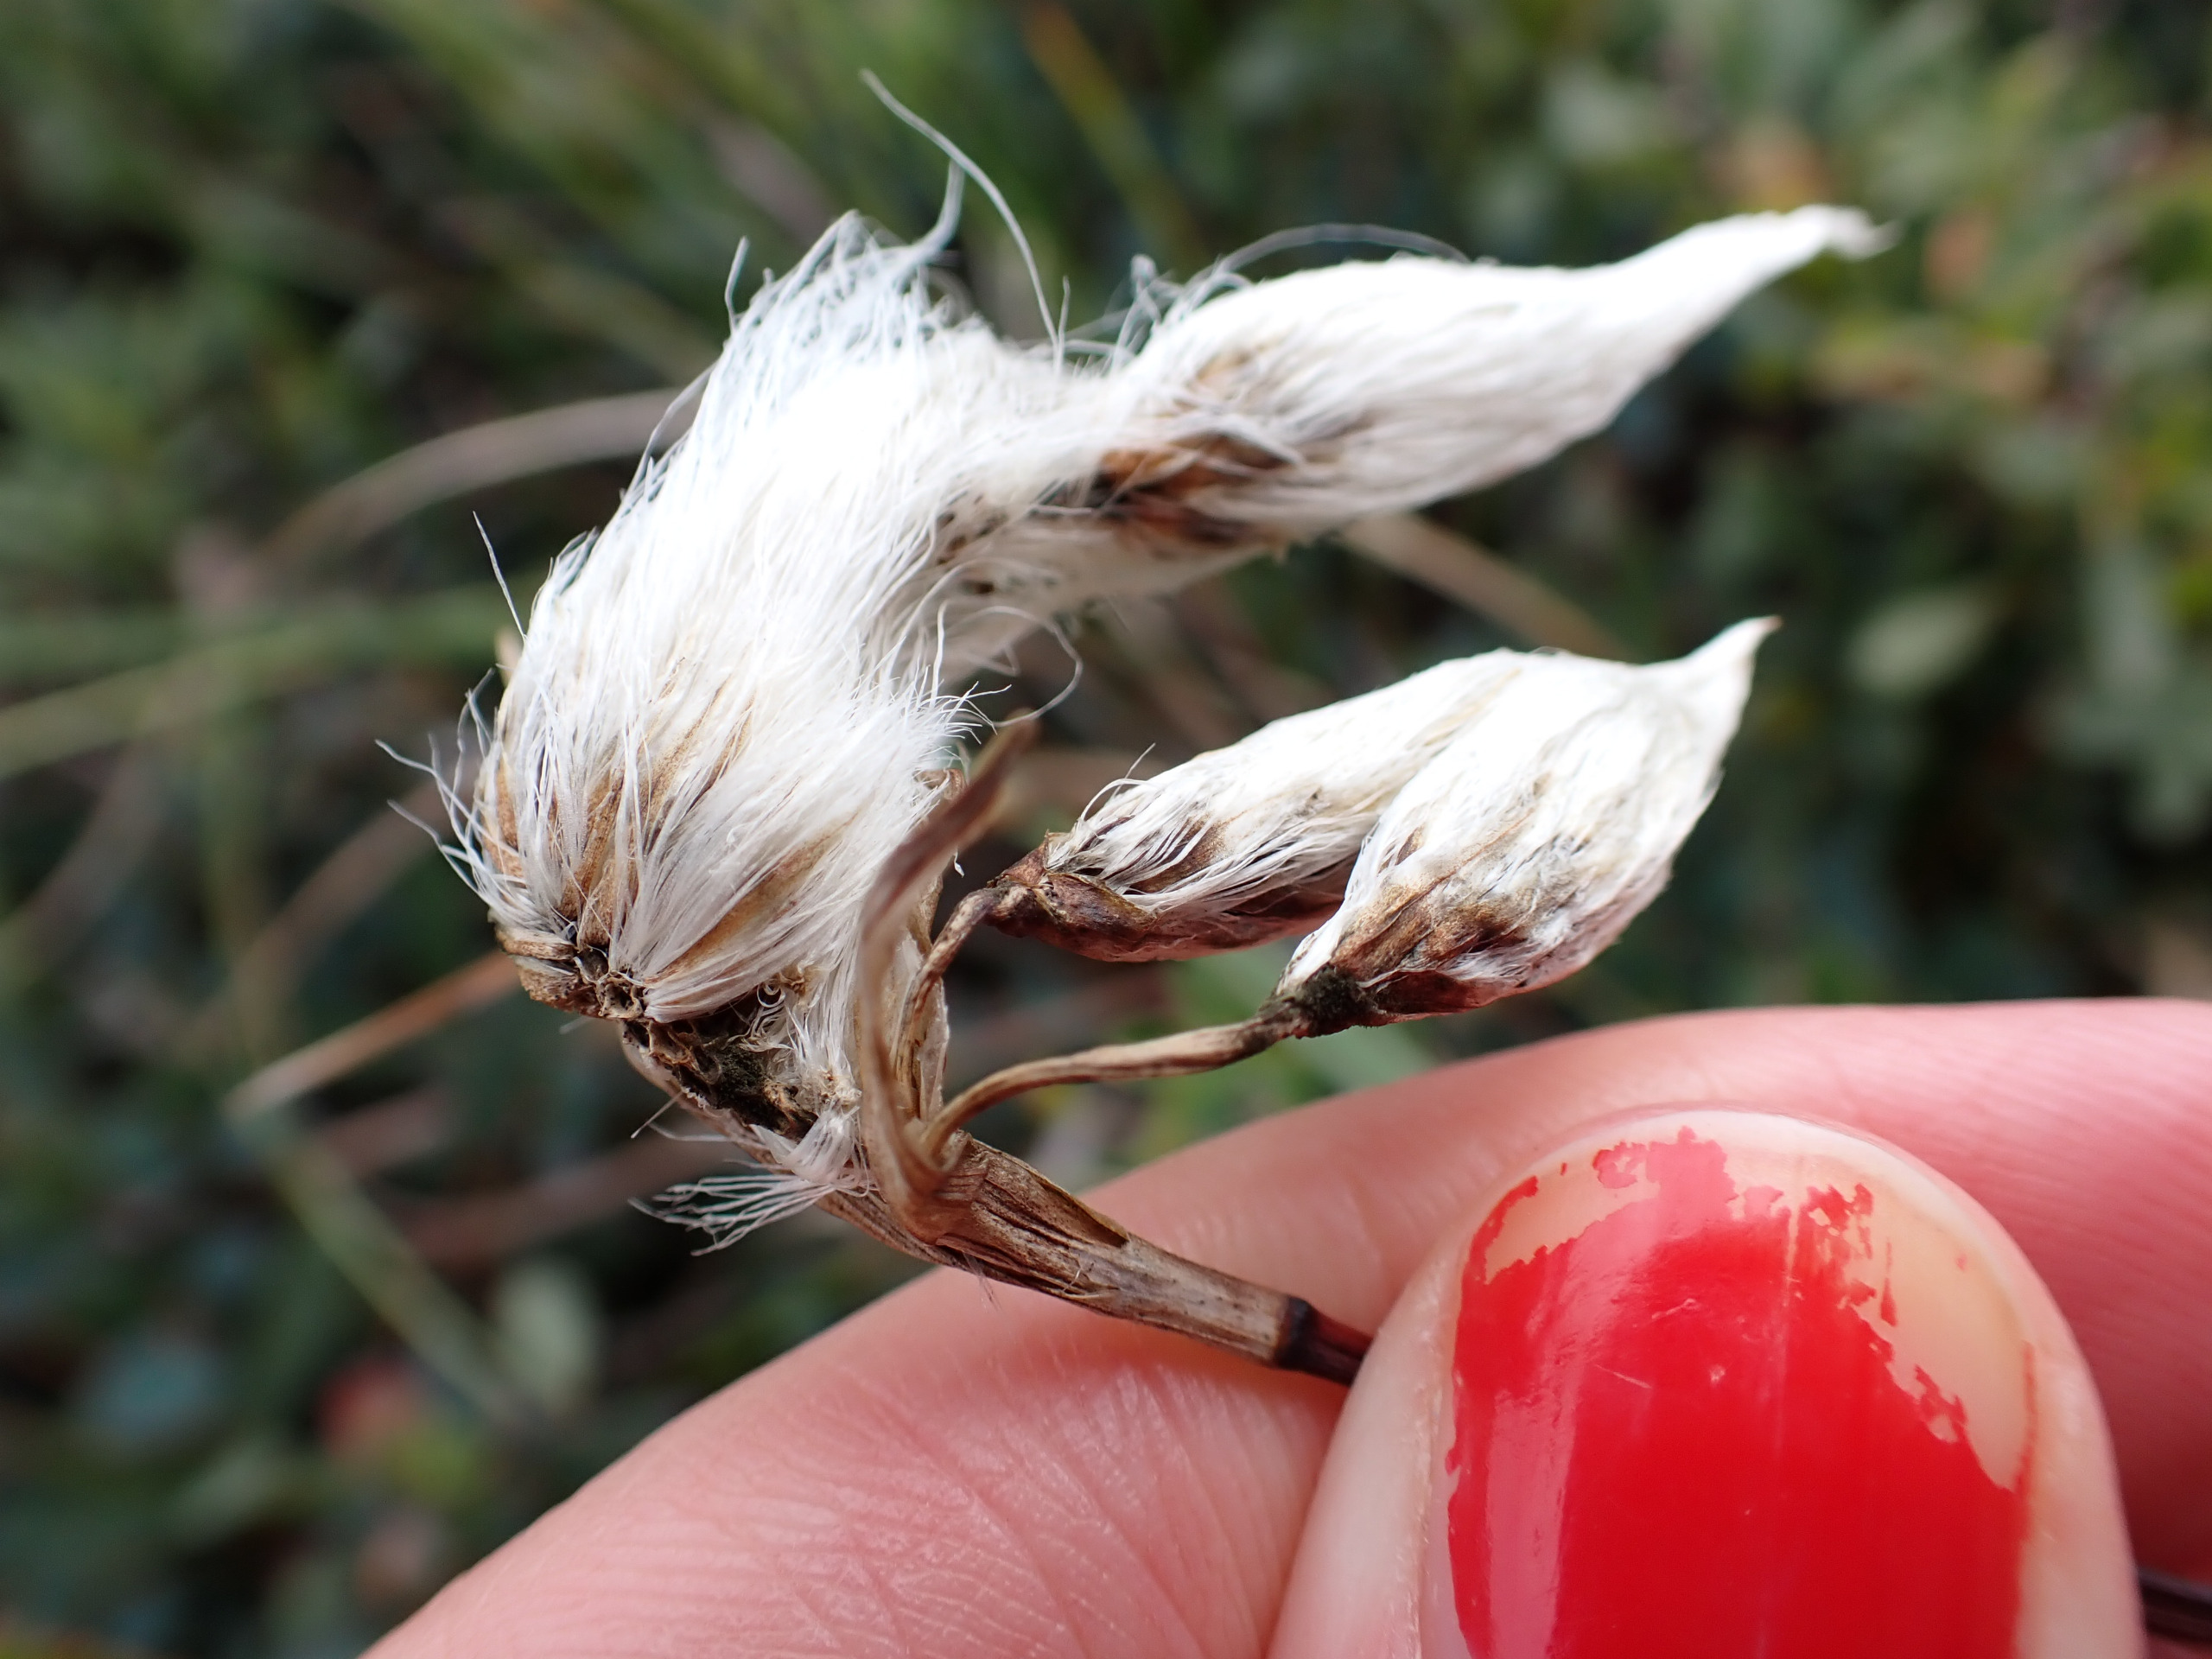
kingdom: Plantae
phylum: Tracheophyta
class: Liliopsida
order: Poales
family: Cyperaceae
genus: Eriophorum
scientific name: Eriophorum angustifolium
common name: Smalbladet kæruld
